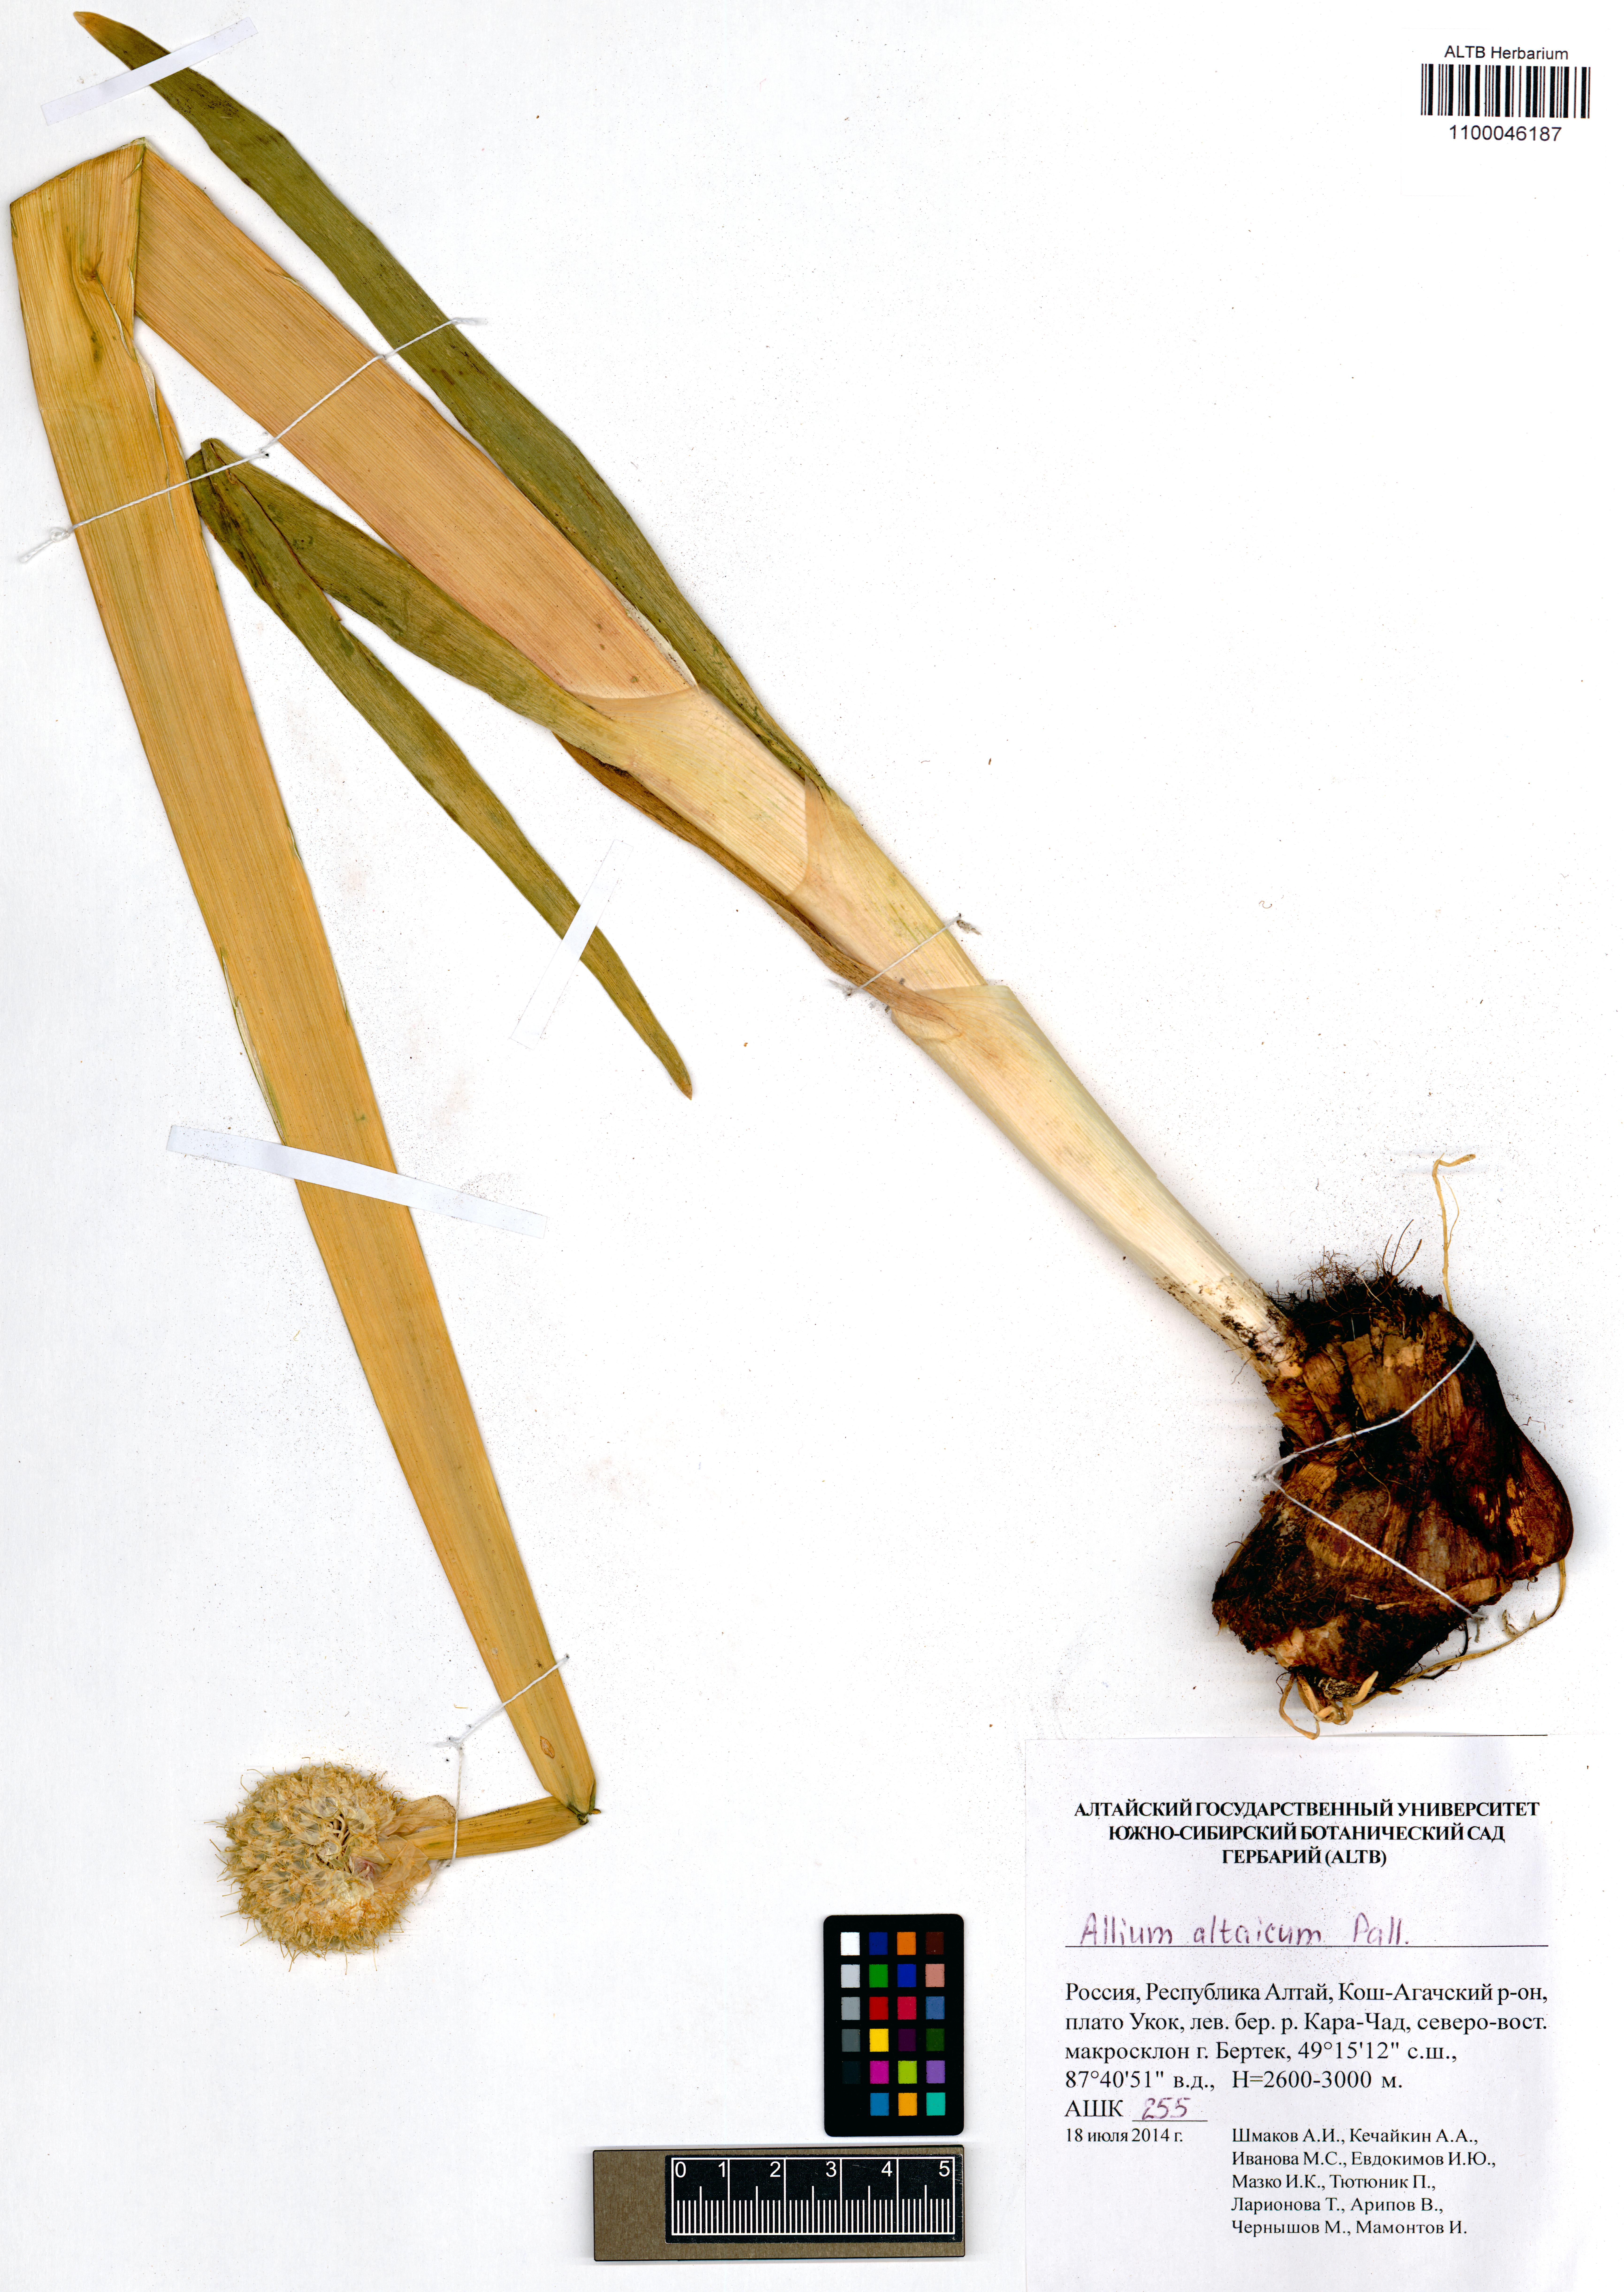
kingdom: Plantae
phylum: Tracheophyta
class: Liliopsida
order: Asparagales
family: Amaryllidaceae
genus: Allium
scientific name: Allium altaicum
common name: Altai onion
